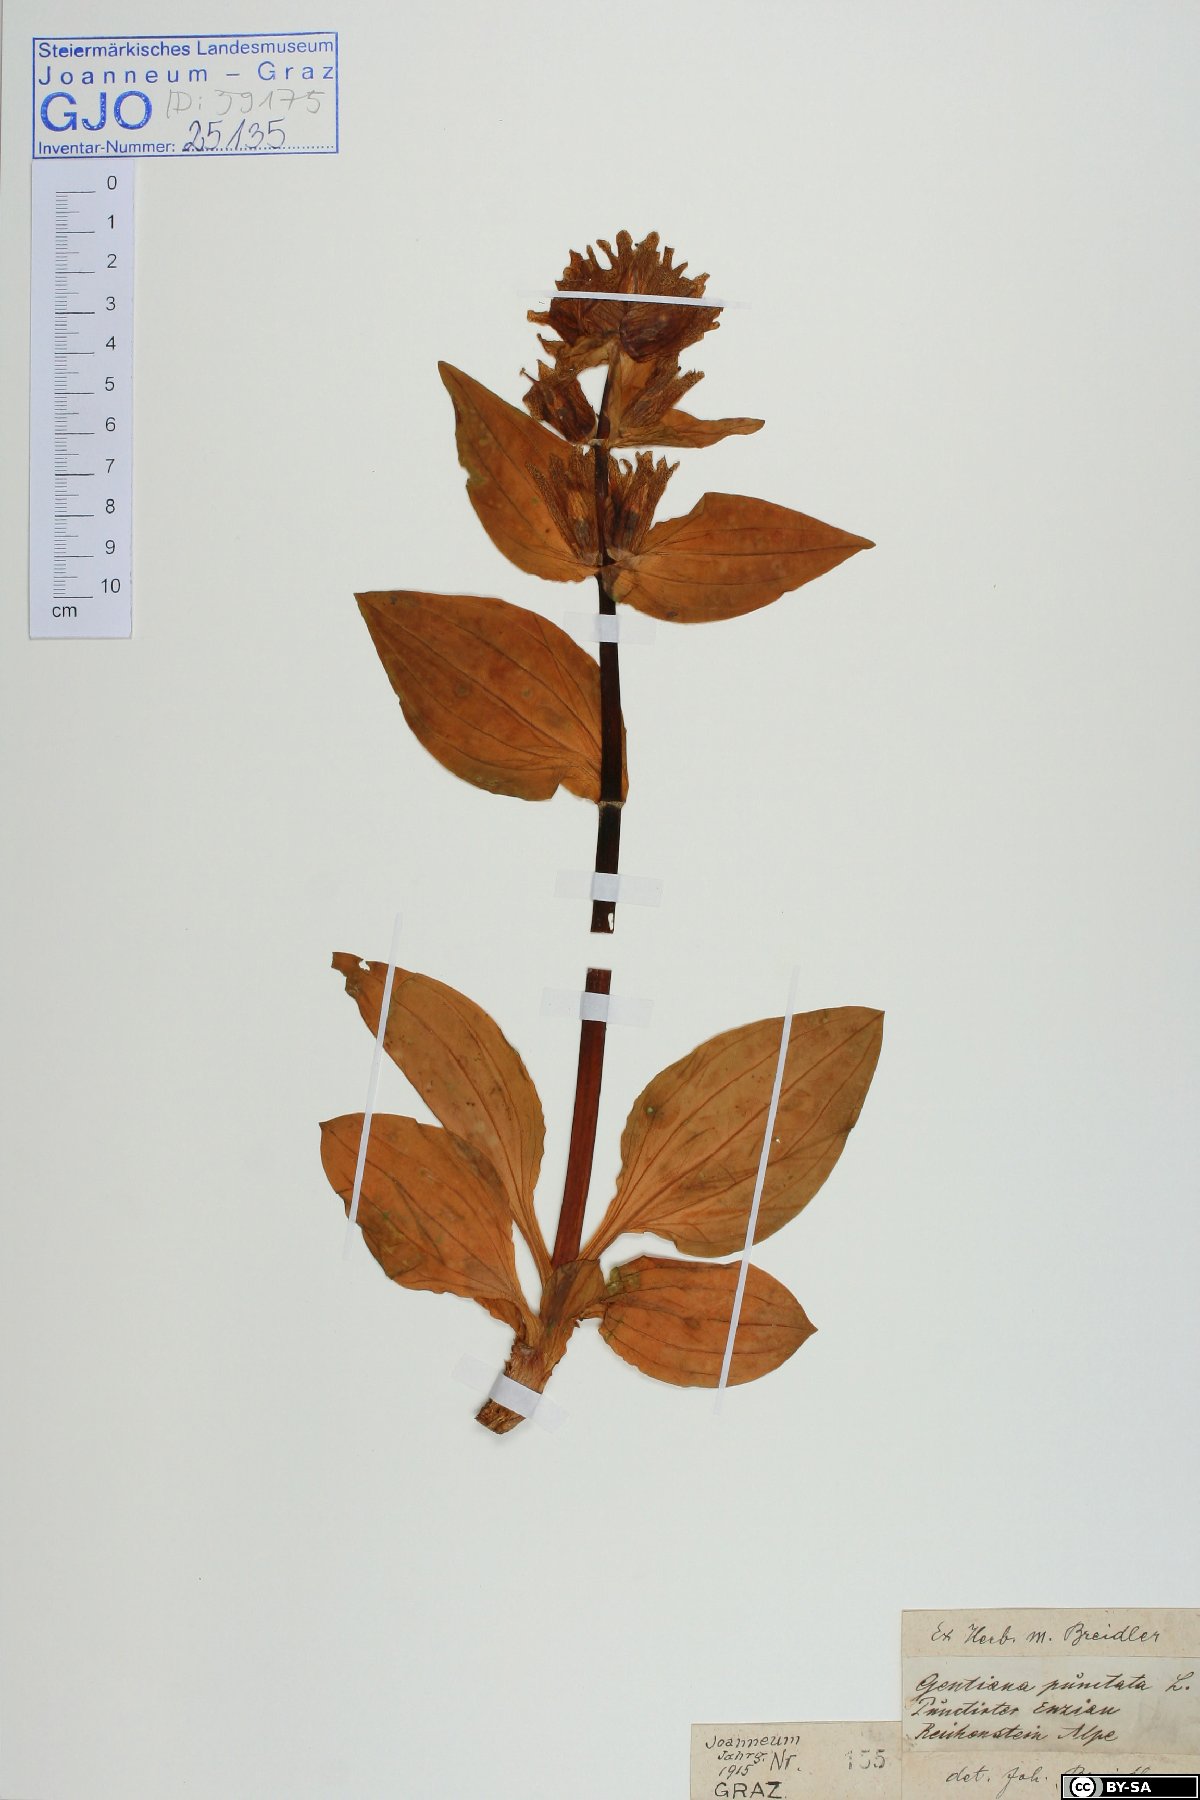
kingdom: Plantae
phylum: Tracheophyta
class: Magnoliopsida
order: Gentianales
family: Gentianaceae
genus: Gentiana
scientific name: Gentiana punctata
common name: Spotted gentian
